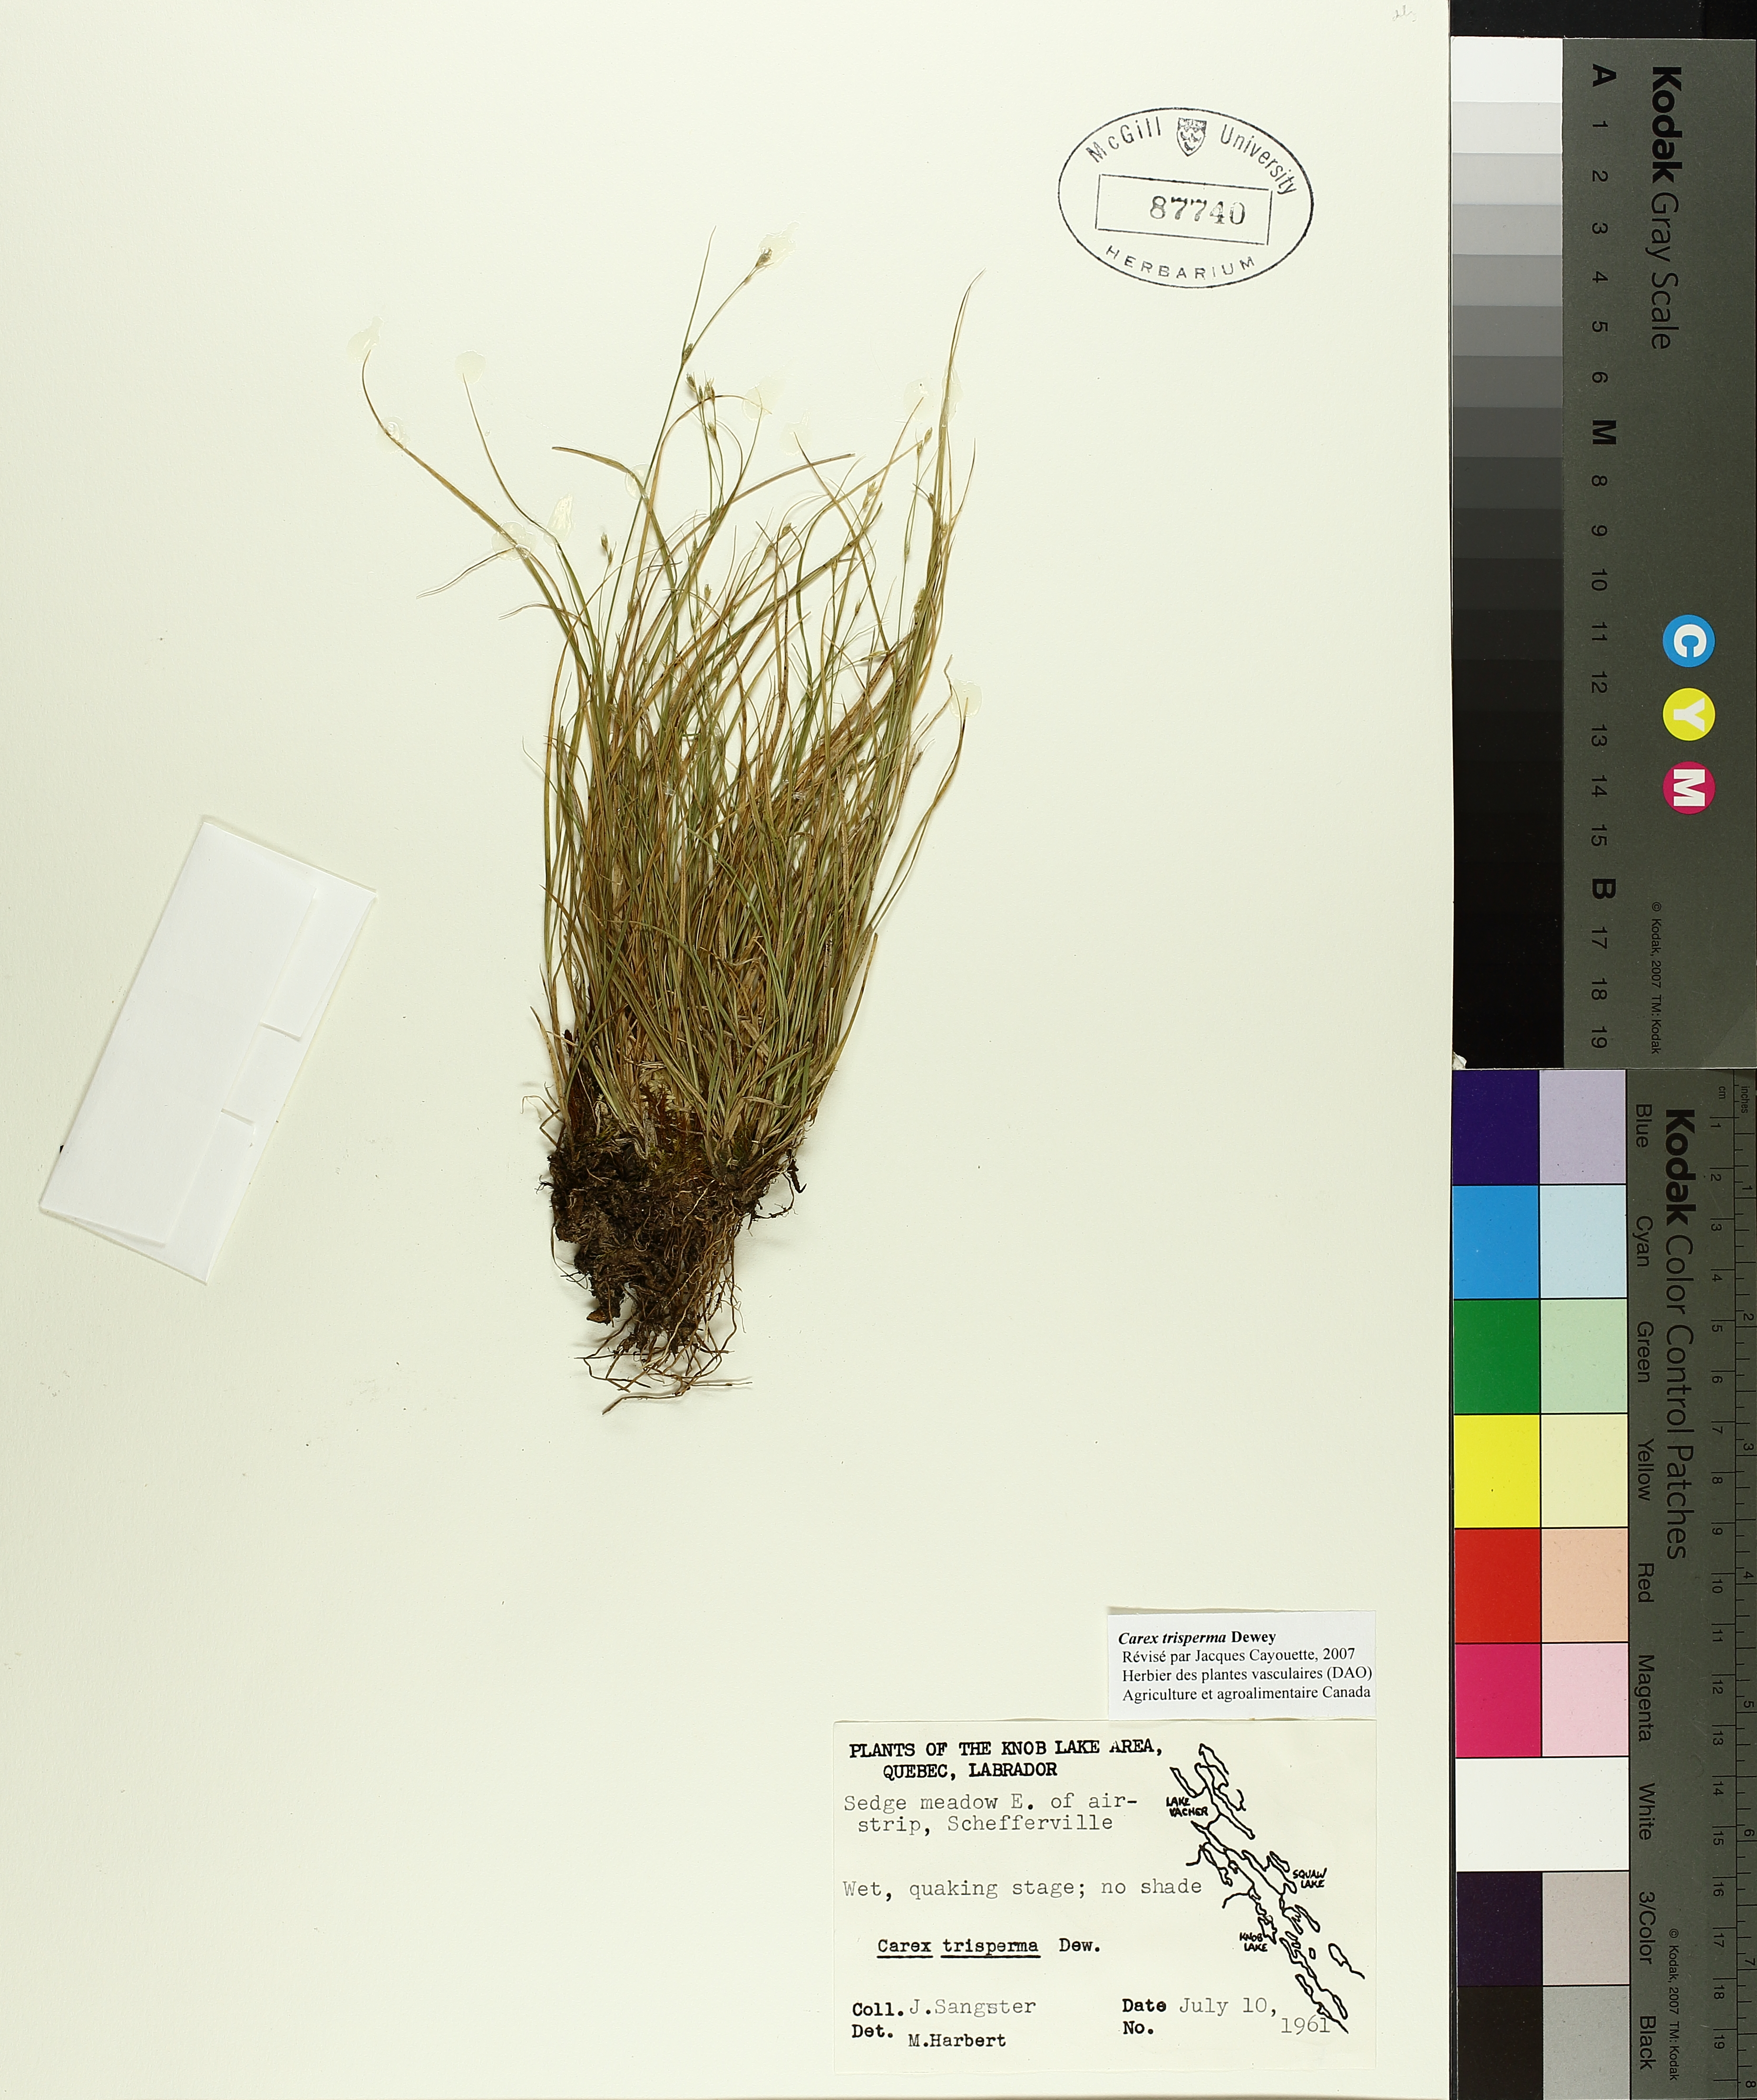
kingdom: Plantae
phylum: Tracheophyta
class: Liliopsida
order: Poales
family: Cyperaceae
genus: Carex
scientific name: Carex trisperma
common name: Three-seeded sedge
